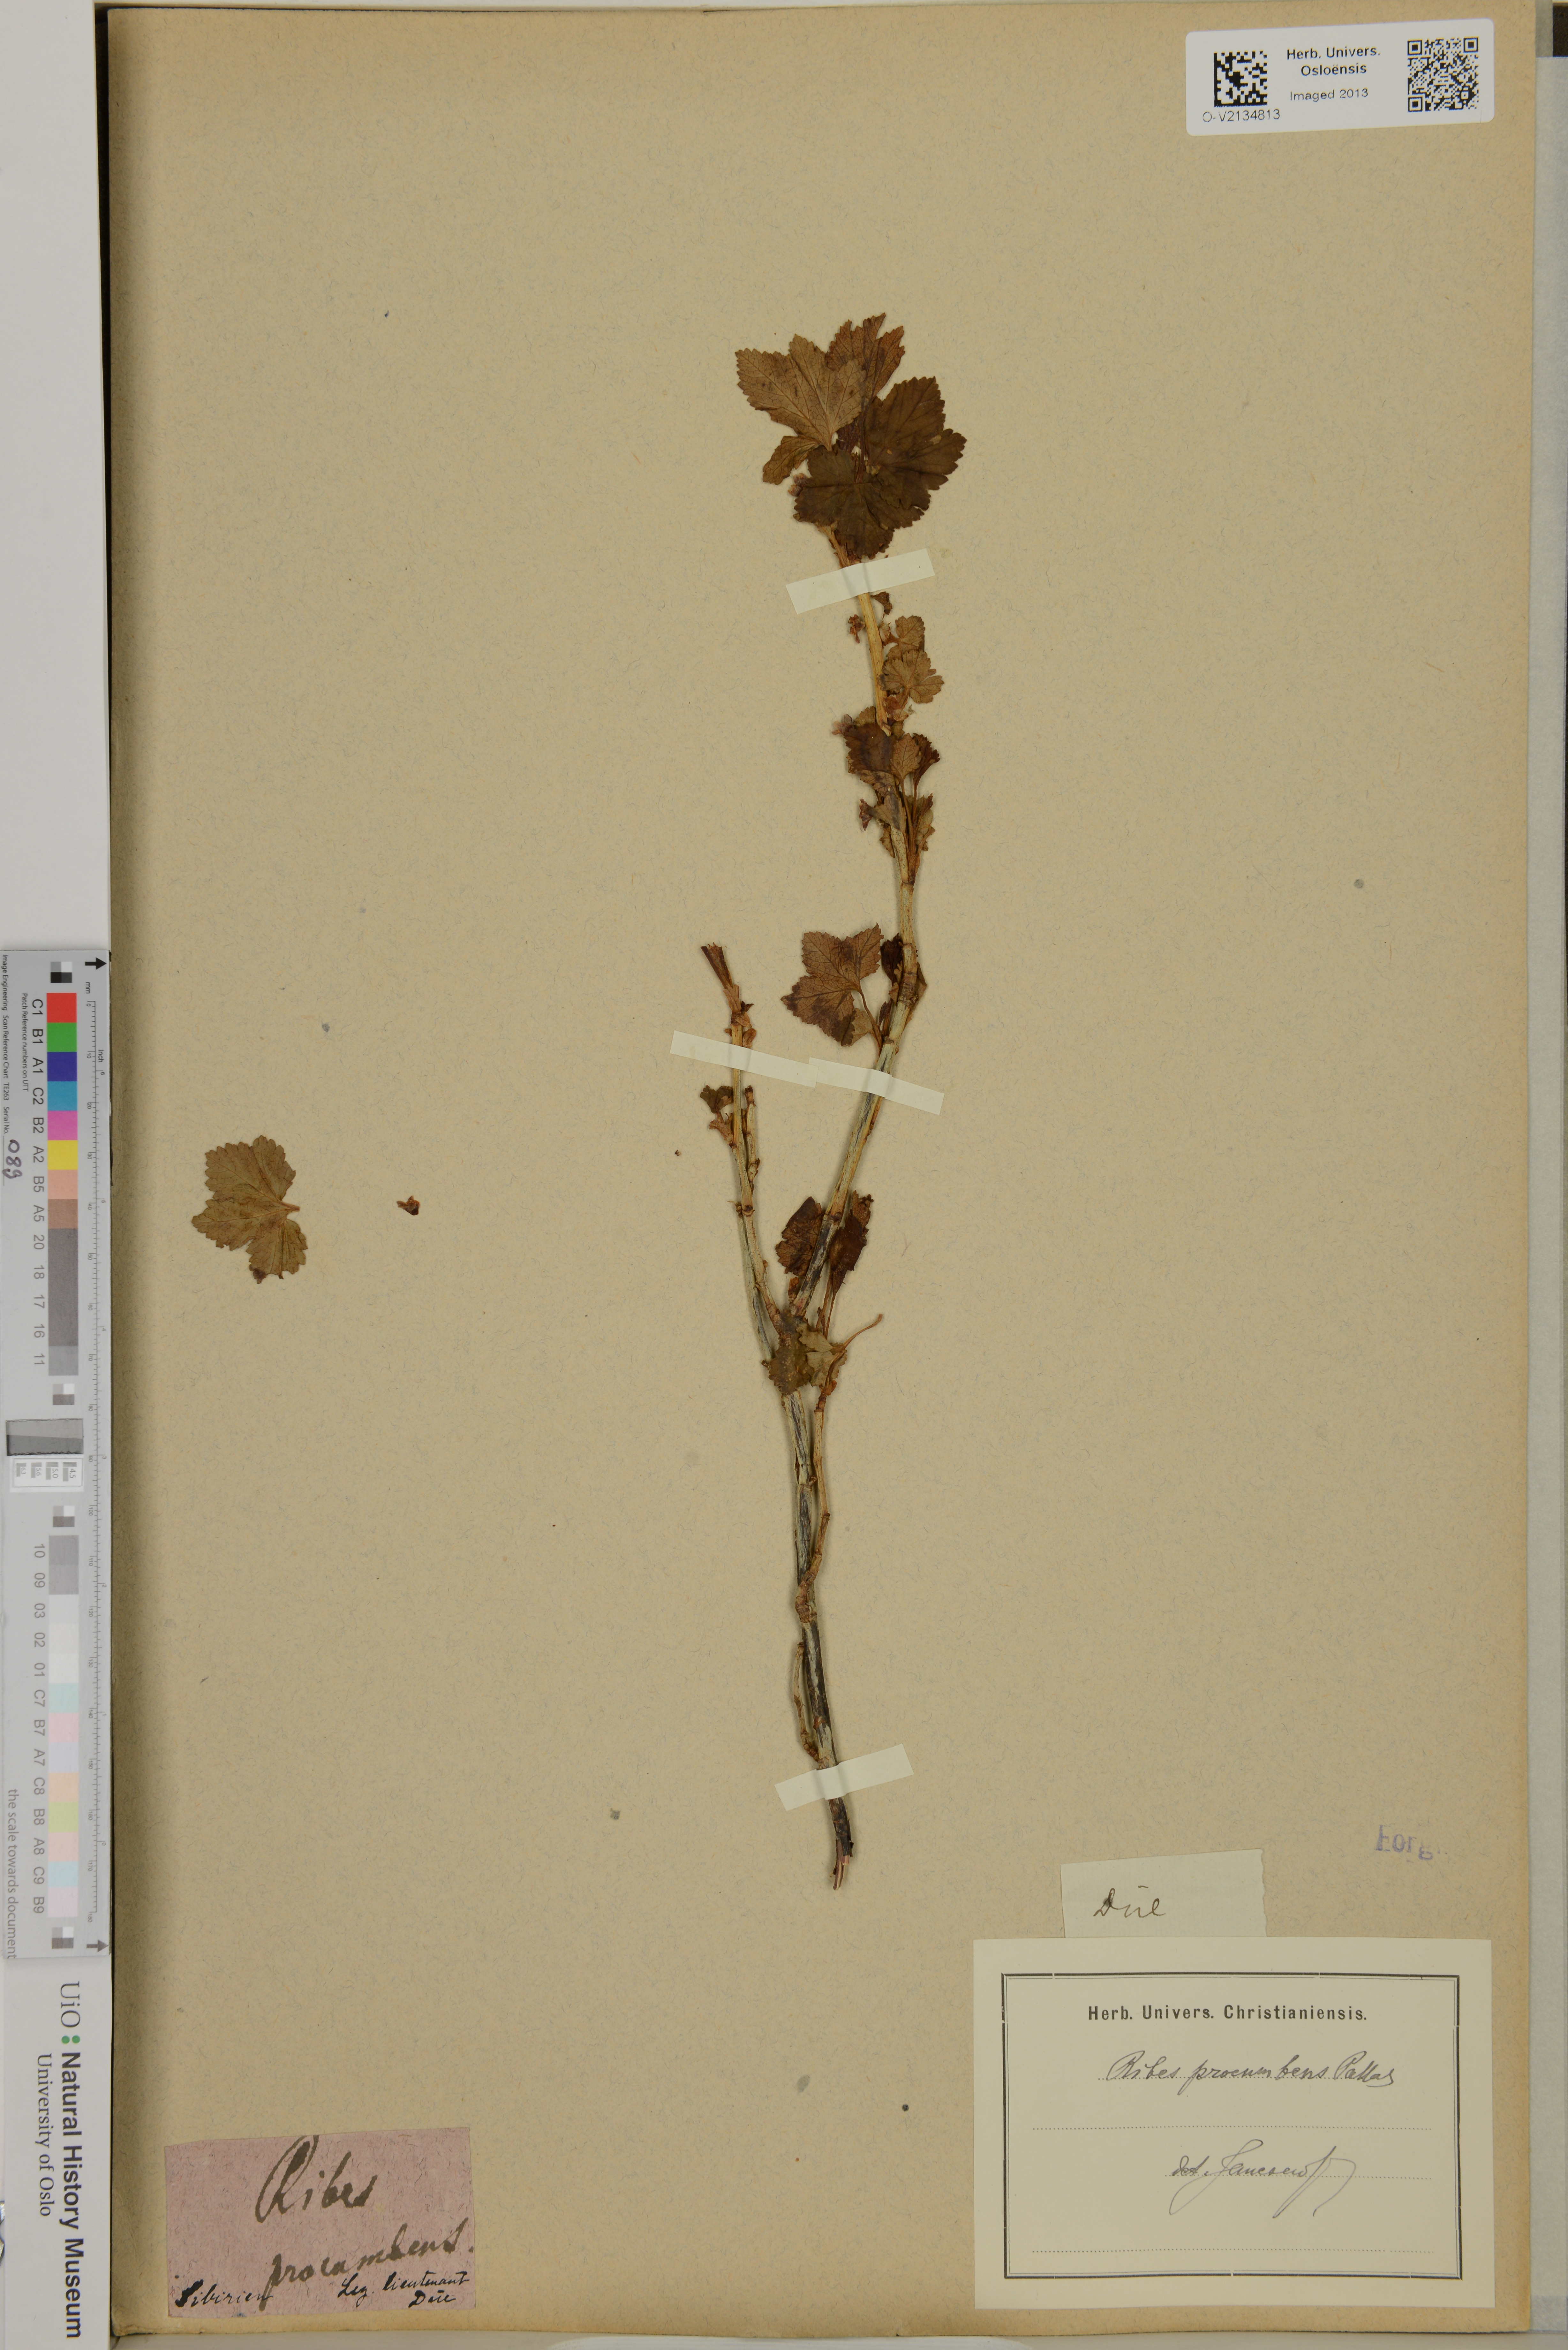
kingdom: Plantae
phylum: Tracheophyta
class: Magnoliopsida
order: Saxifragales
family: Grossulariaceae
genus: Ribes
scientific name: Ribes procumbens
